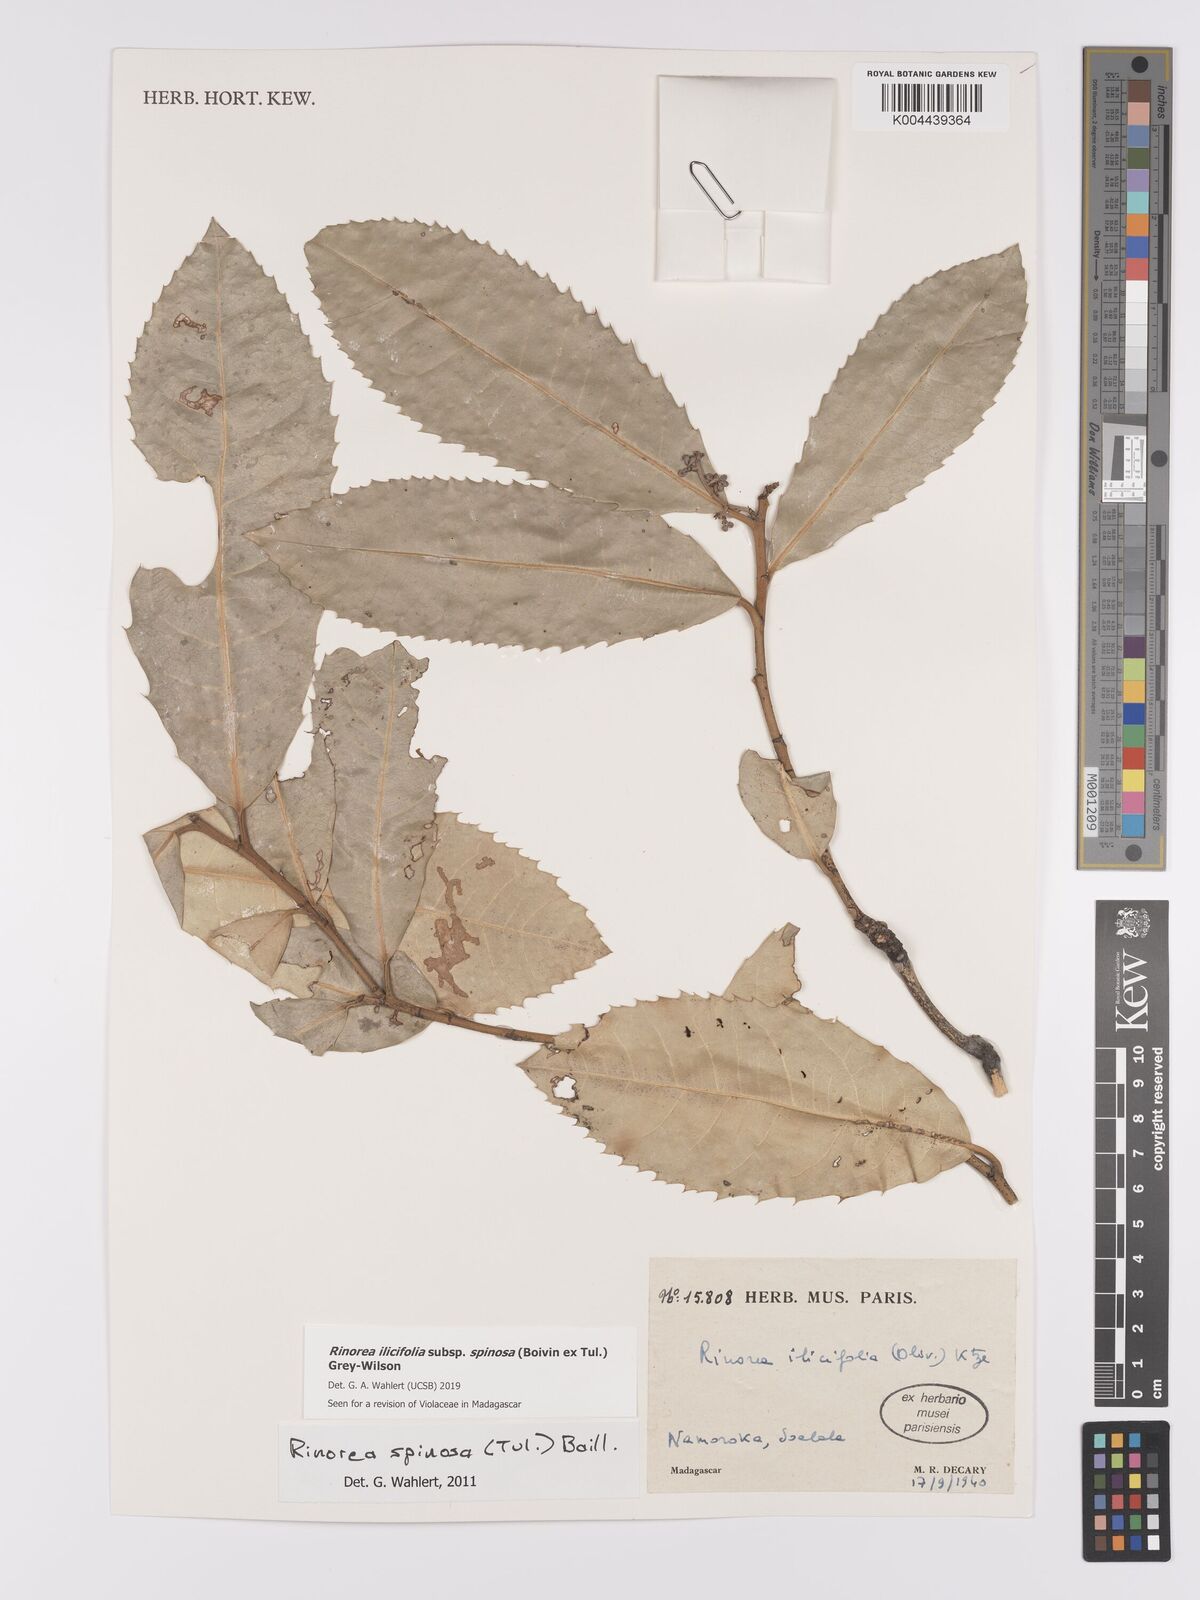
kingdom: Plantae
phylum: Tracheophyta
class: Magnoliopsida
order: Malpighiales
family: Violaceae
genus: Rinorea
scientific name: Rinorea spinosa
